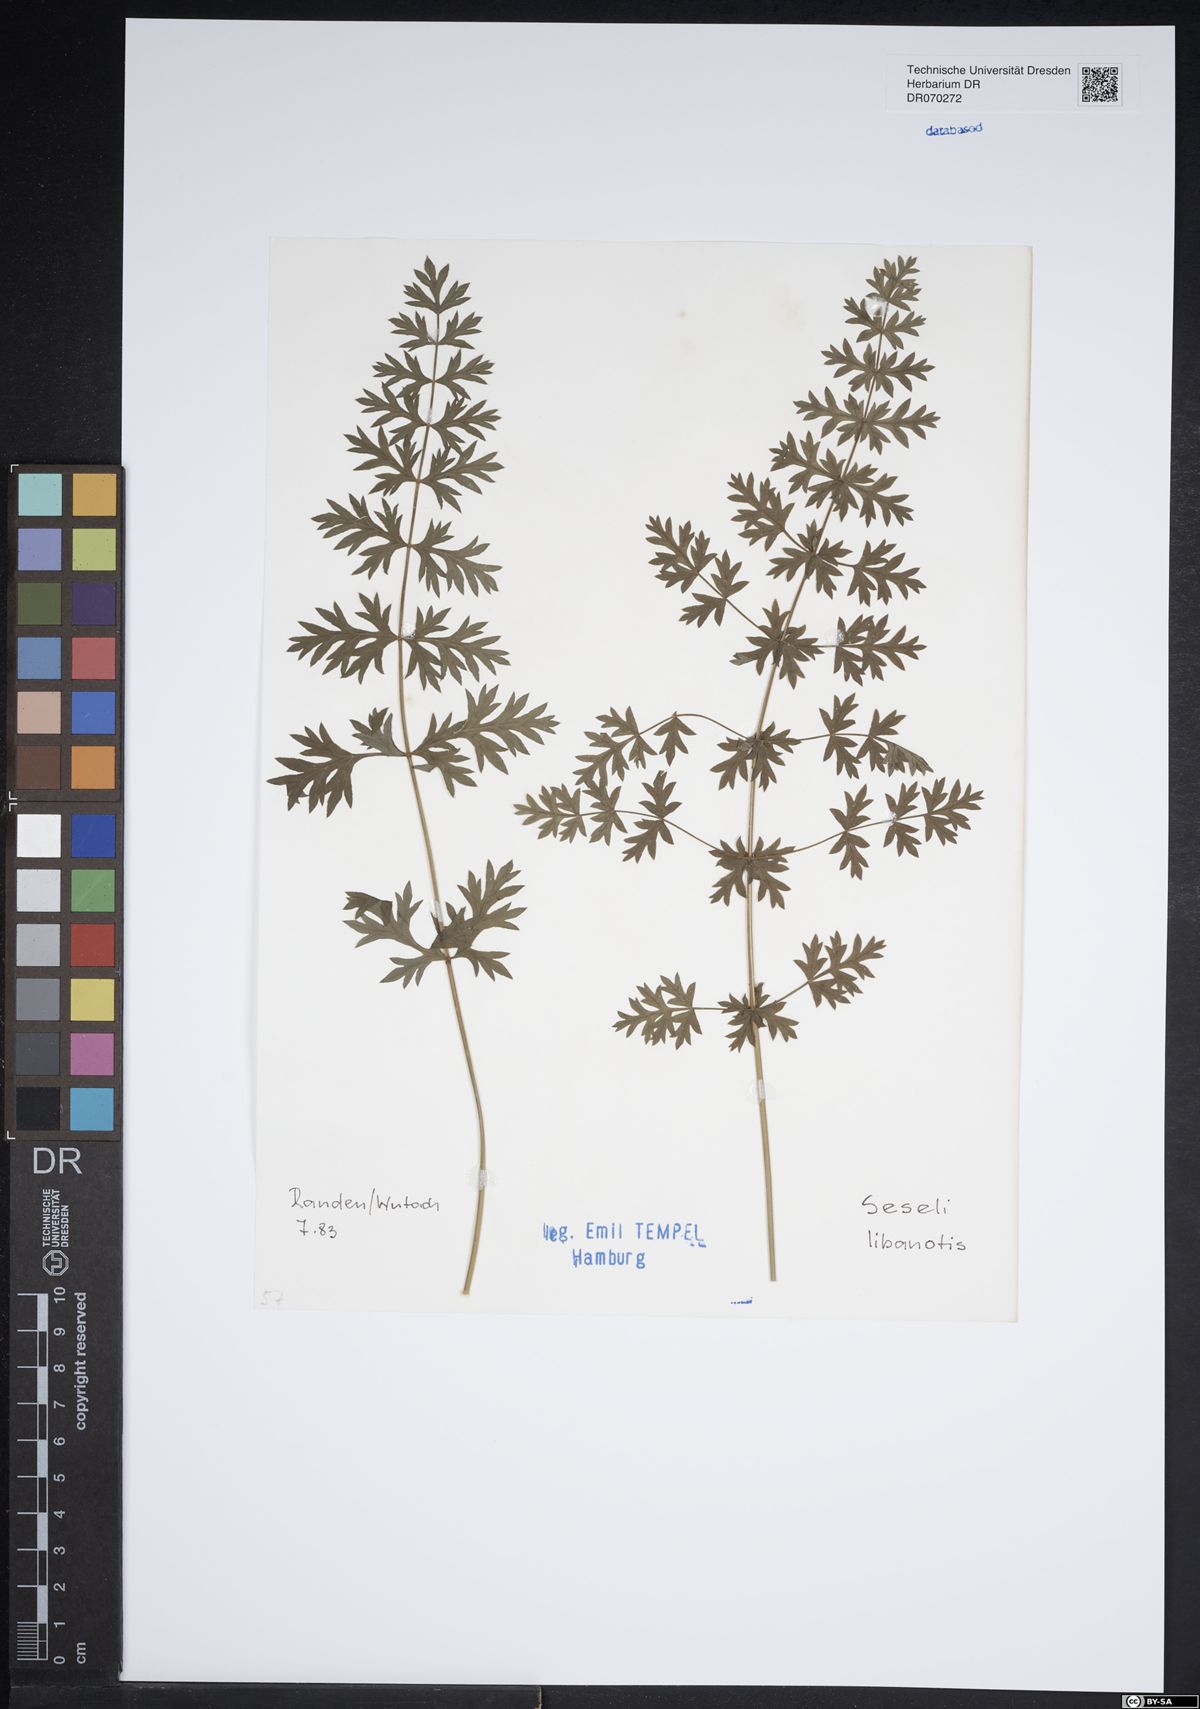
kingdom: Plantae
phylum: Tracheophyta
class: Magnoliopsida
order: Apiales
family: Apiaceae
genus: Seseli
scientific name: Seseli libanotis
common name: Mooncarrot
